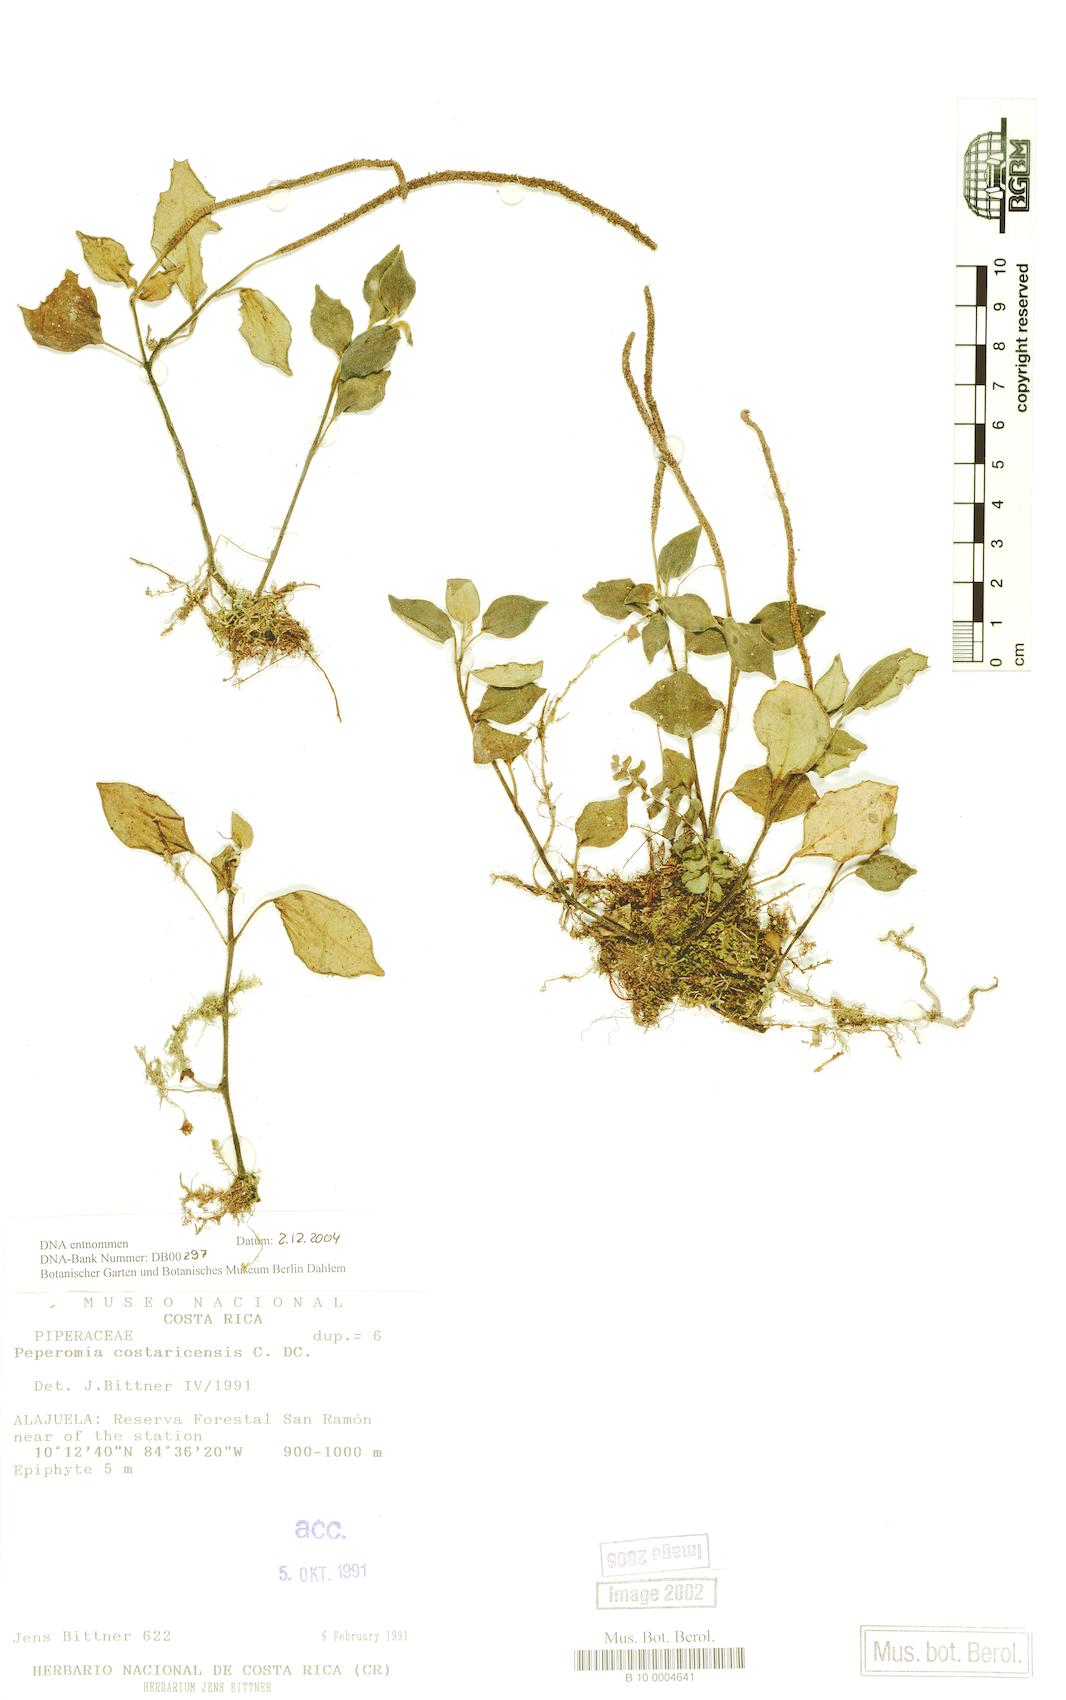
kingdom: Plantae
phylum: Tracheophyta
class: Magnoliopsida
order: Piperales
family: Piperaceae
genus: Peperomia
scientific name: Peperomia hirta
